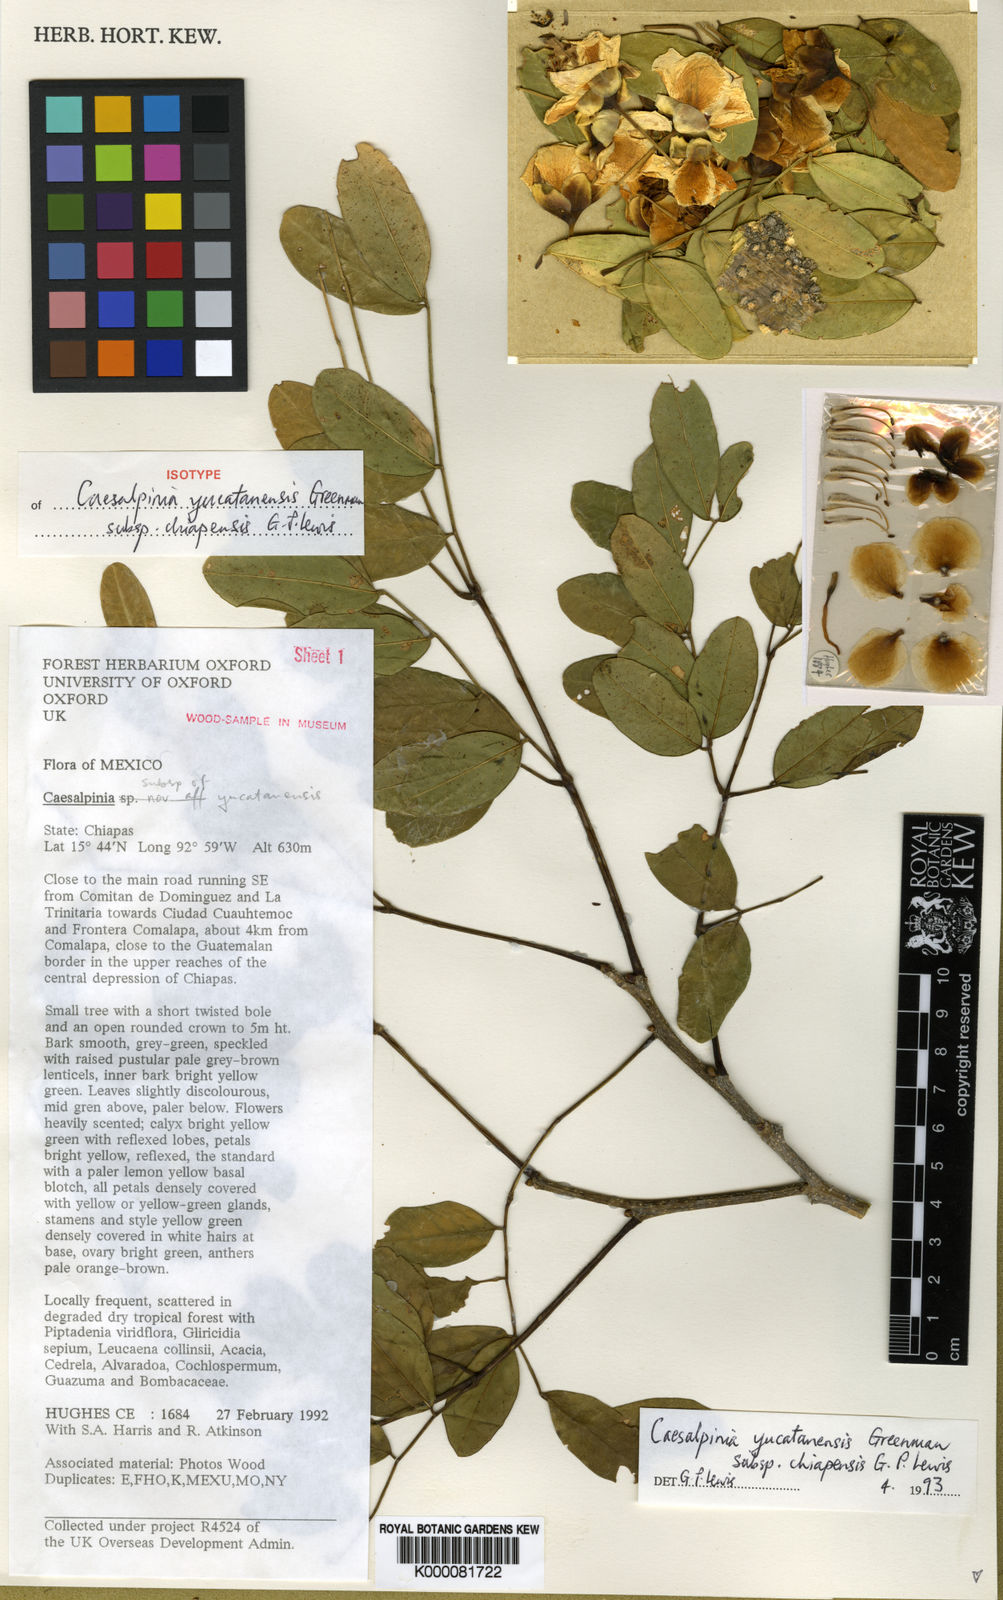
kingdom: Plantae
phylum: Tracheophyta
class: Magnoliopsida
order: Fabales
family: Fabaceae
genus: Erythrostemon
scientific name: Erythrostemon yucatanensis
